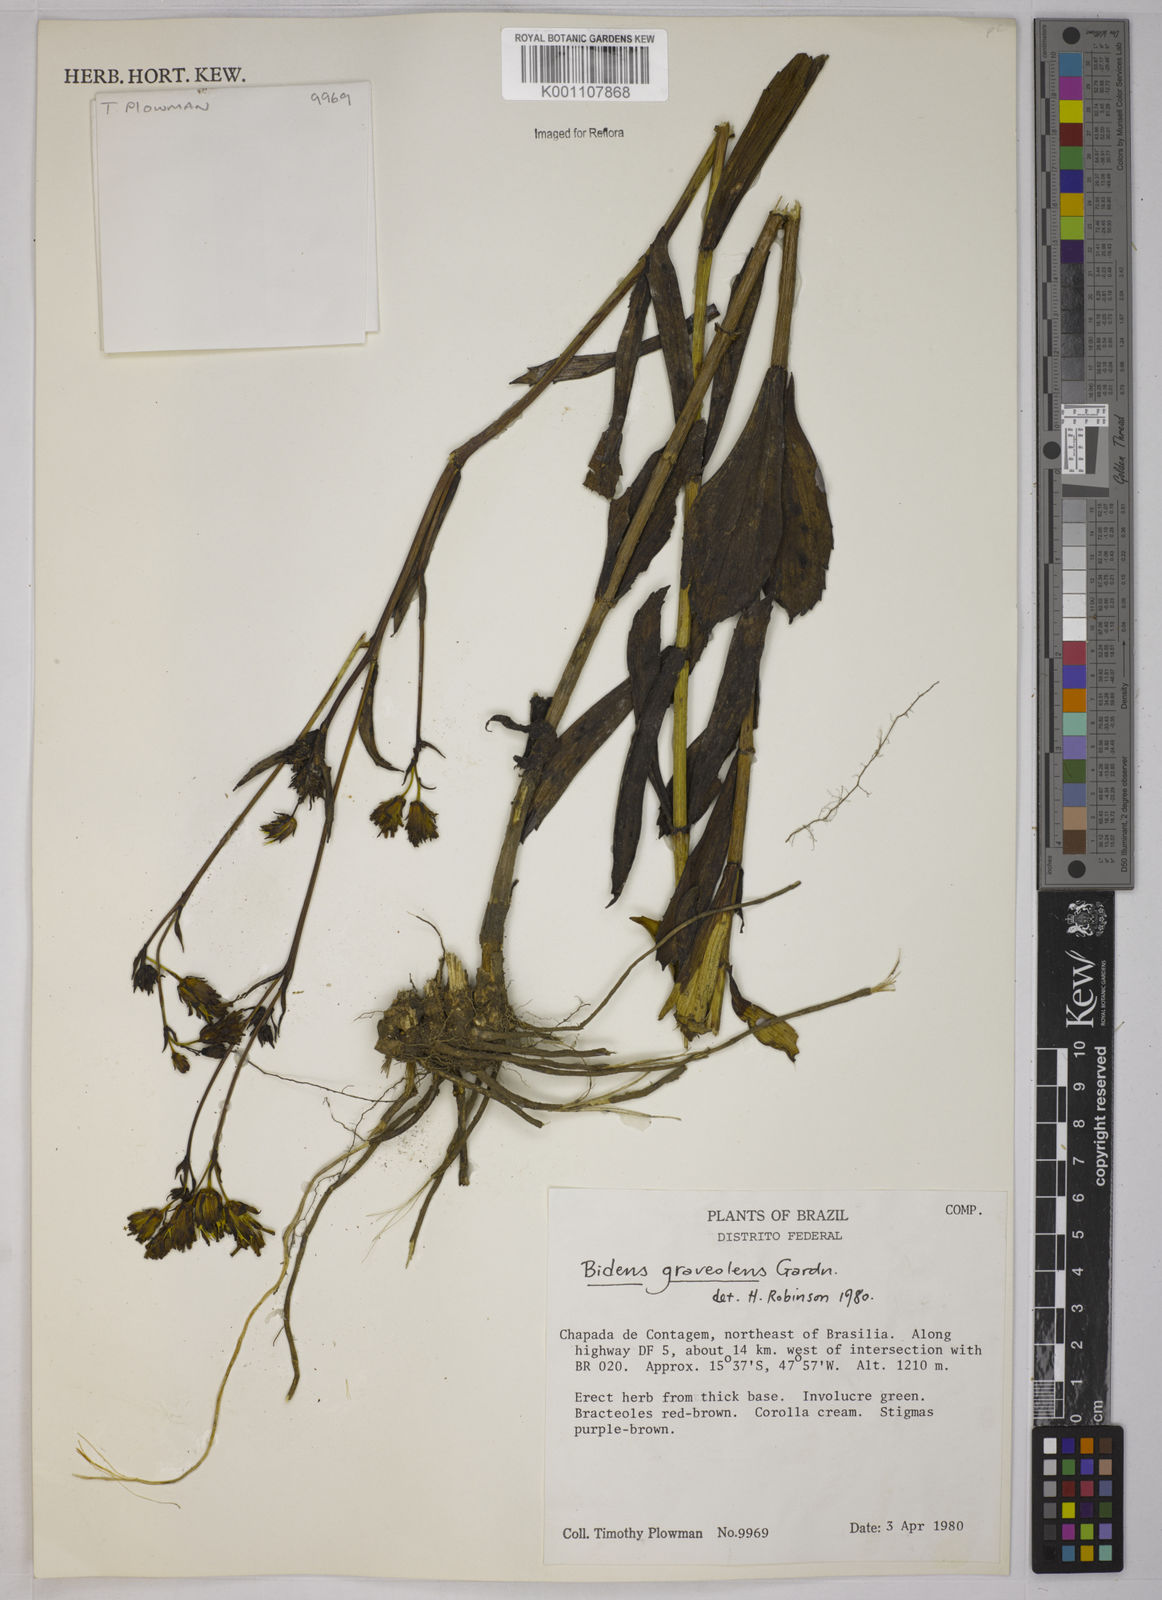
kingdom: Plantae
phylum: Tracheophyta
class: Magnoliopsida
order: Asterales
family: Asteraceae
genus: Bidens
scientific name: Bidens
